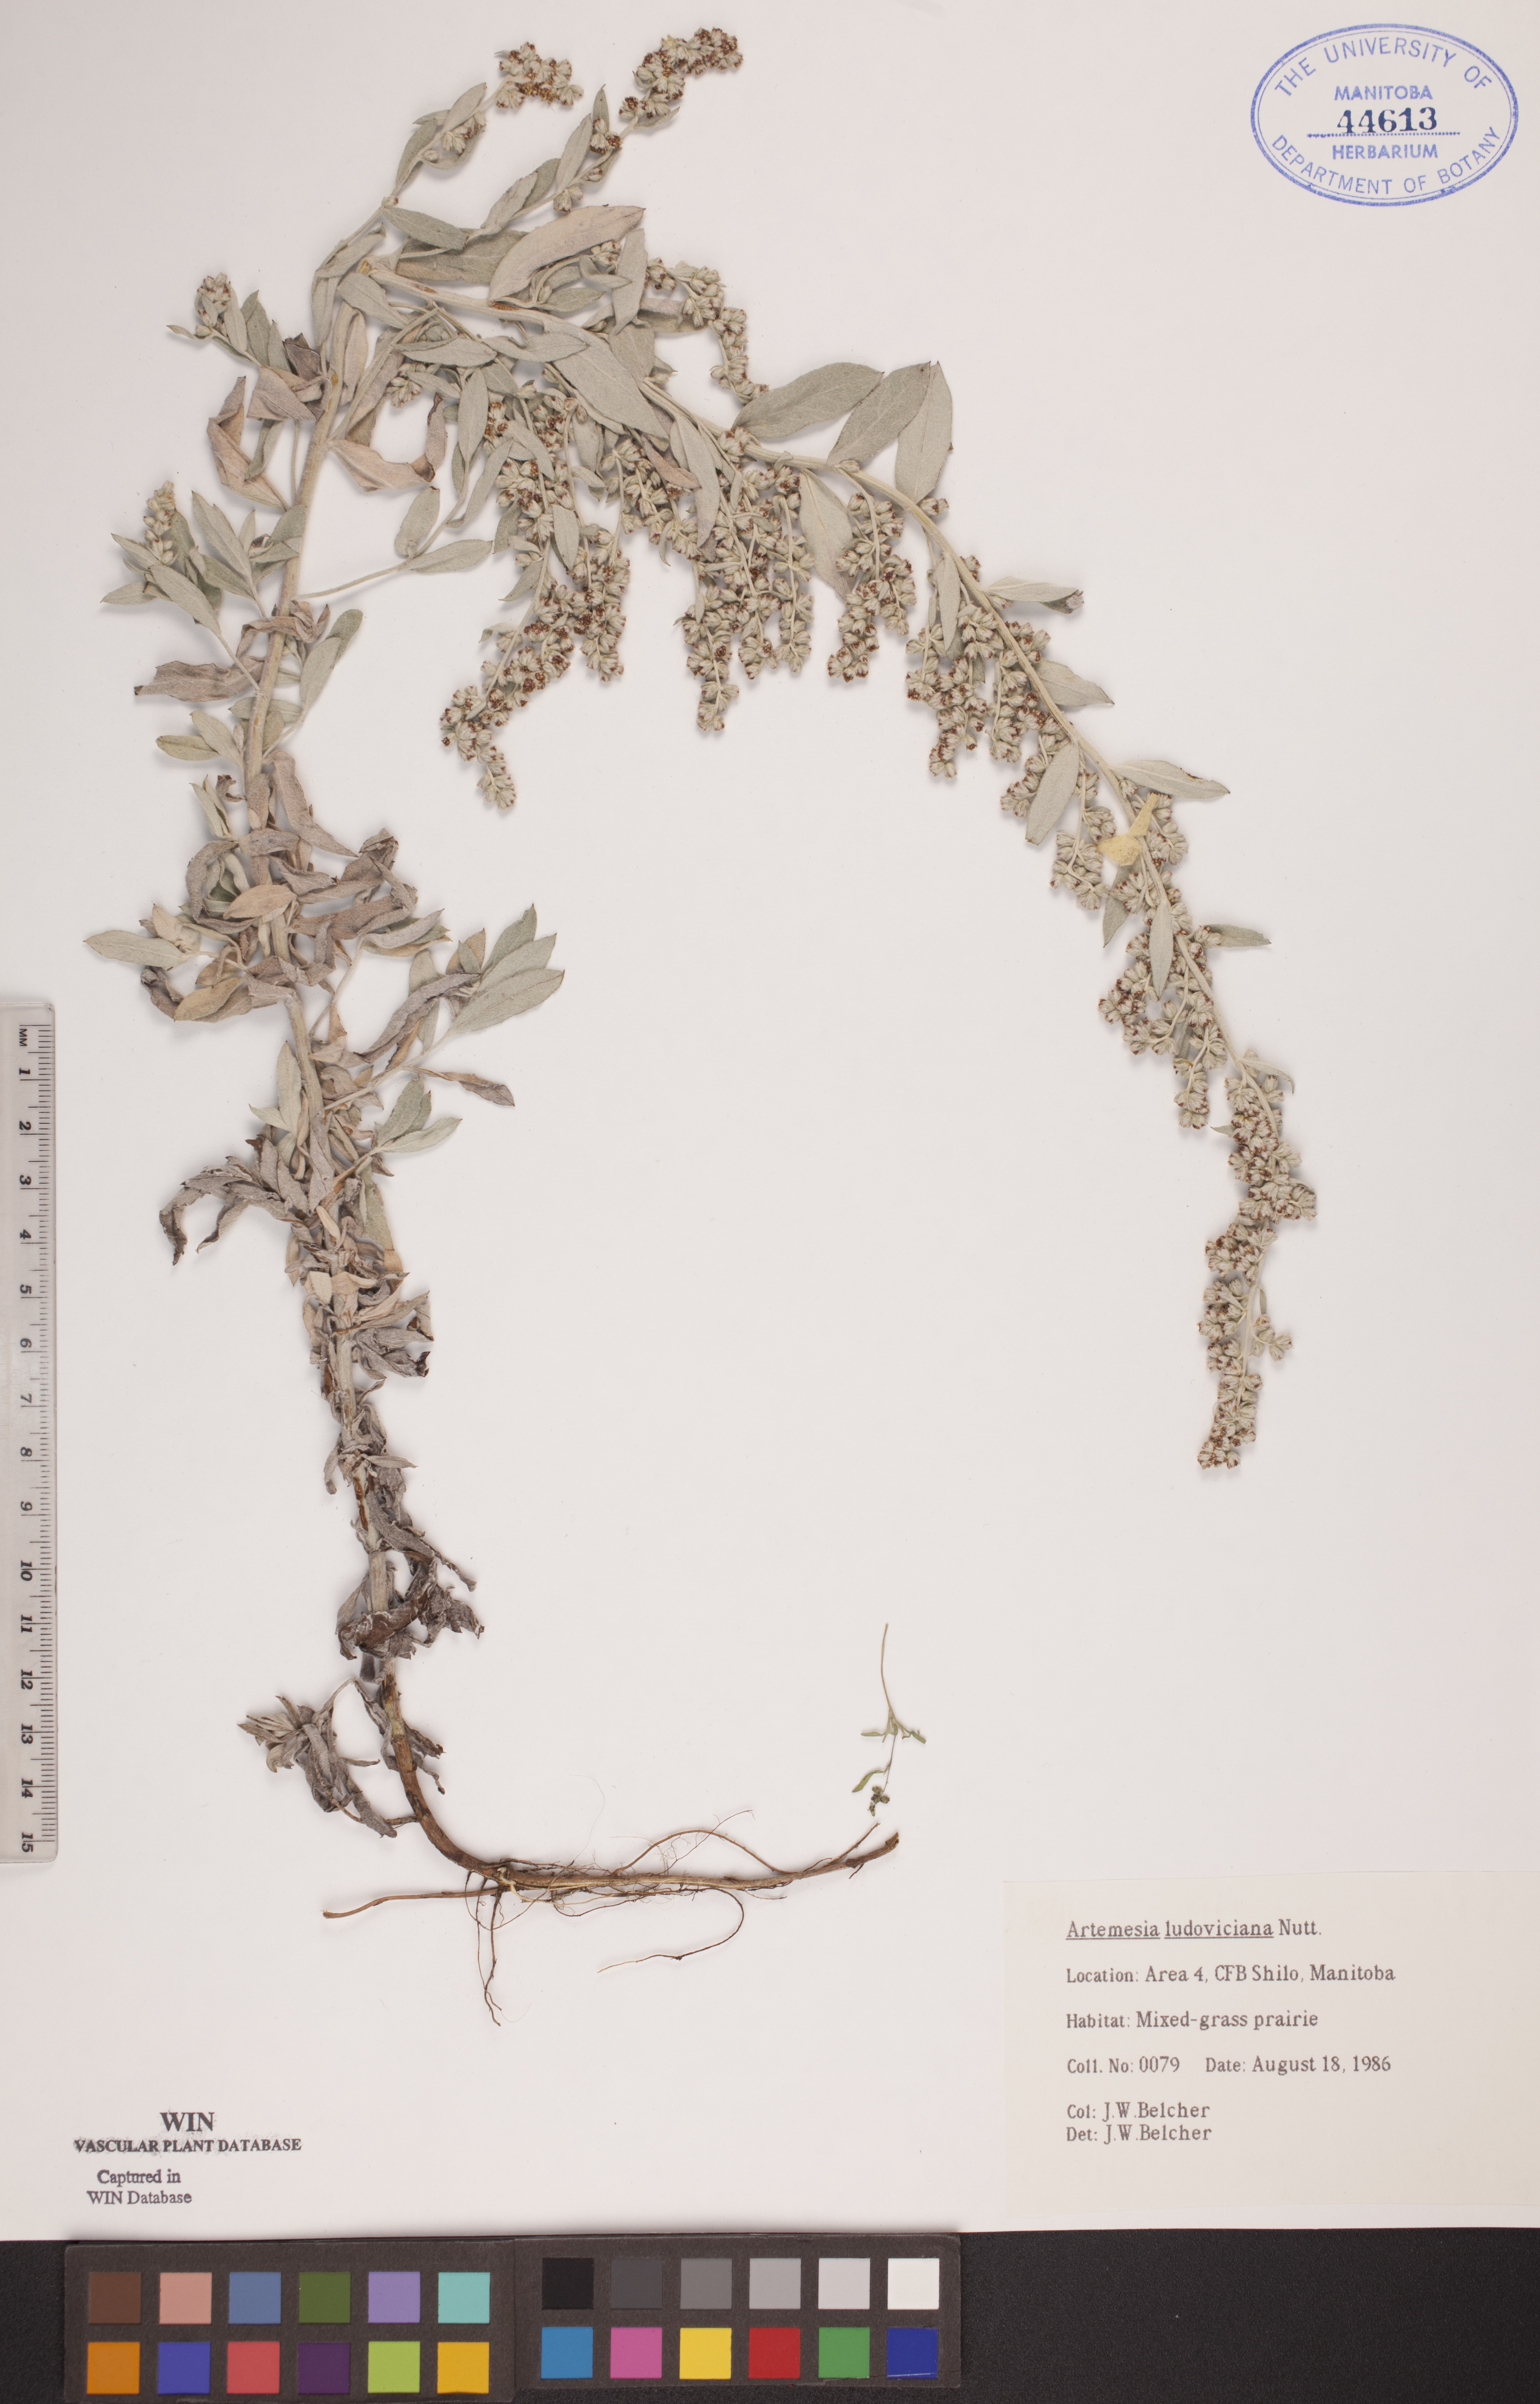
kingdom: Plantae
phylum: Tracheophyta
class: Magnoliopsida
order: Asterales
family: Asteraceae
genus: Artemisia
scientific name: Artemisia ludoviciana
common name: Western mugwort
